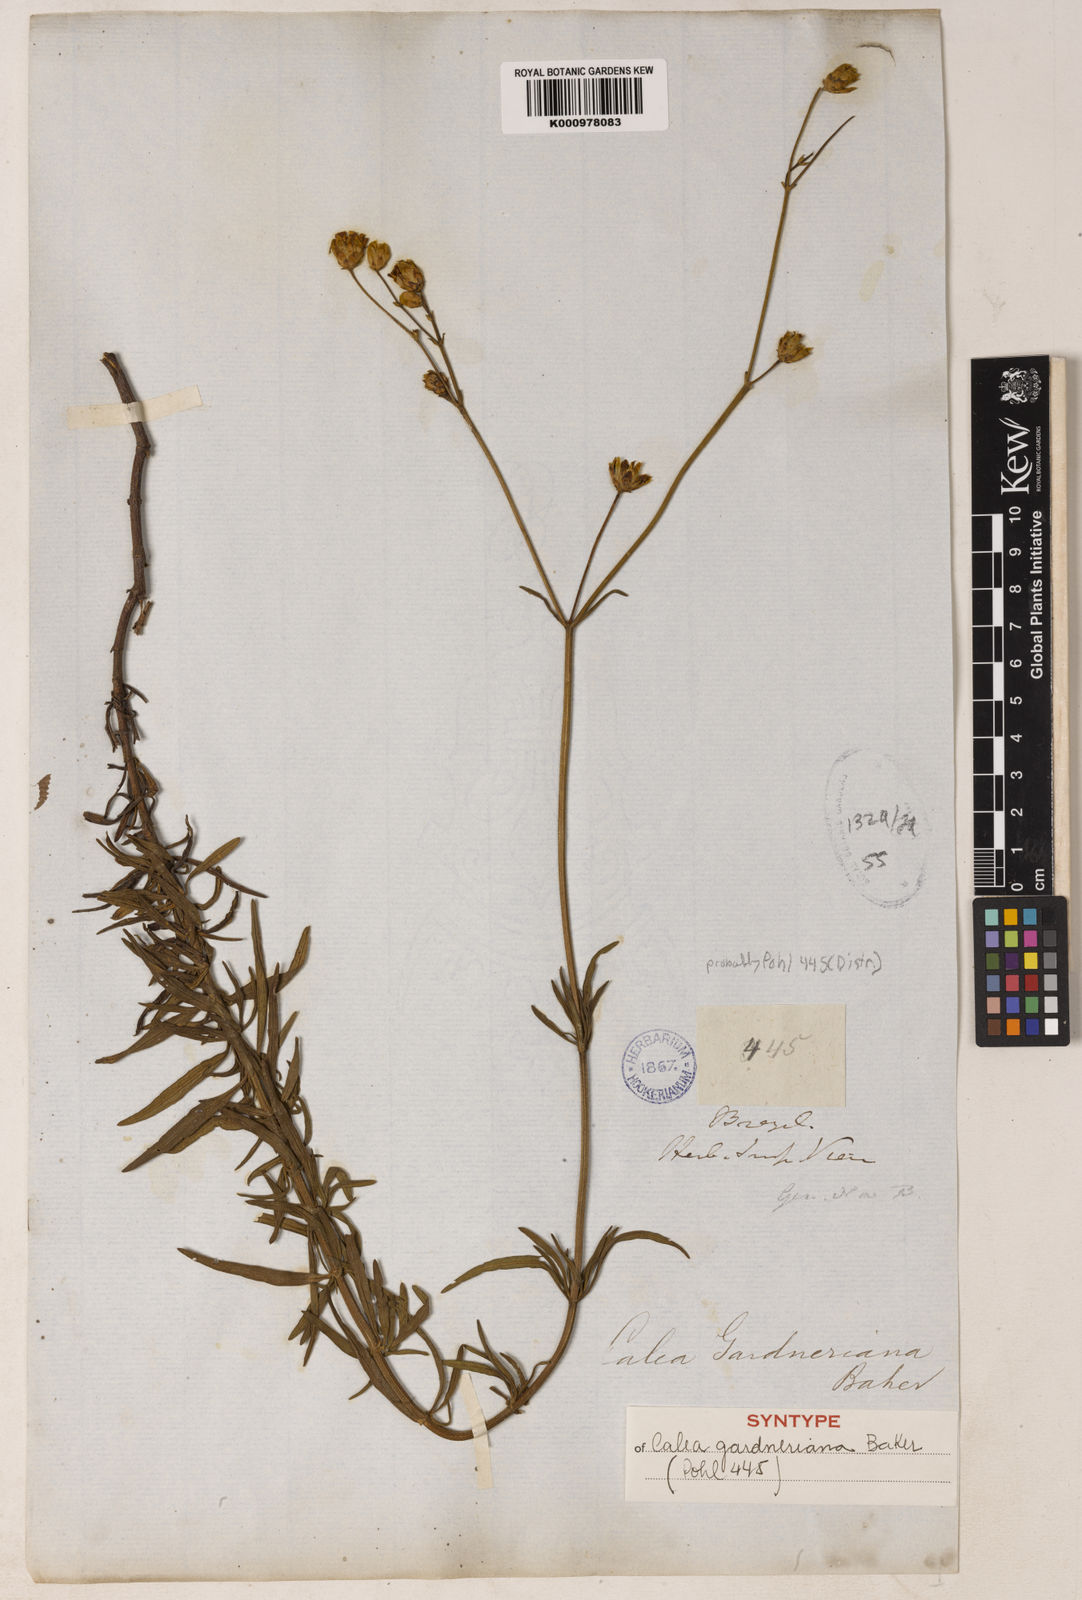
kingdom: Plantae
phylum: Tracheophyta
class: Magnoliopsida
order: Asterales
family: Asteraceae
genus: Calea
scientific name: Calea gardneriana
